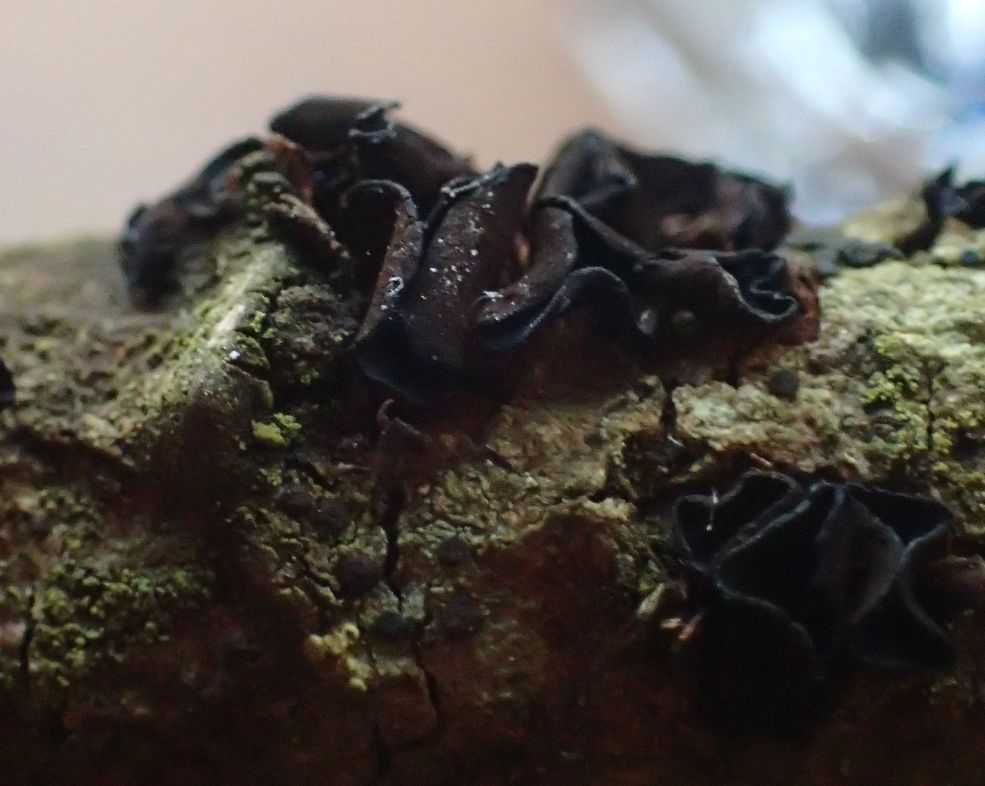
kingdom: Fungi
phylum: Ascomycota
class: Leotiomycetes
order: Helotiales
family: Cordieritidaceae
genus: Ionomidotis
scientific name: Ionomidotis fulvotingens
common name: rødmende tjæreskive
